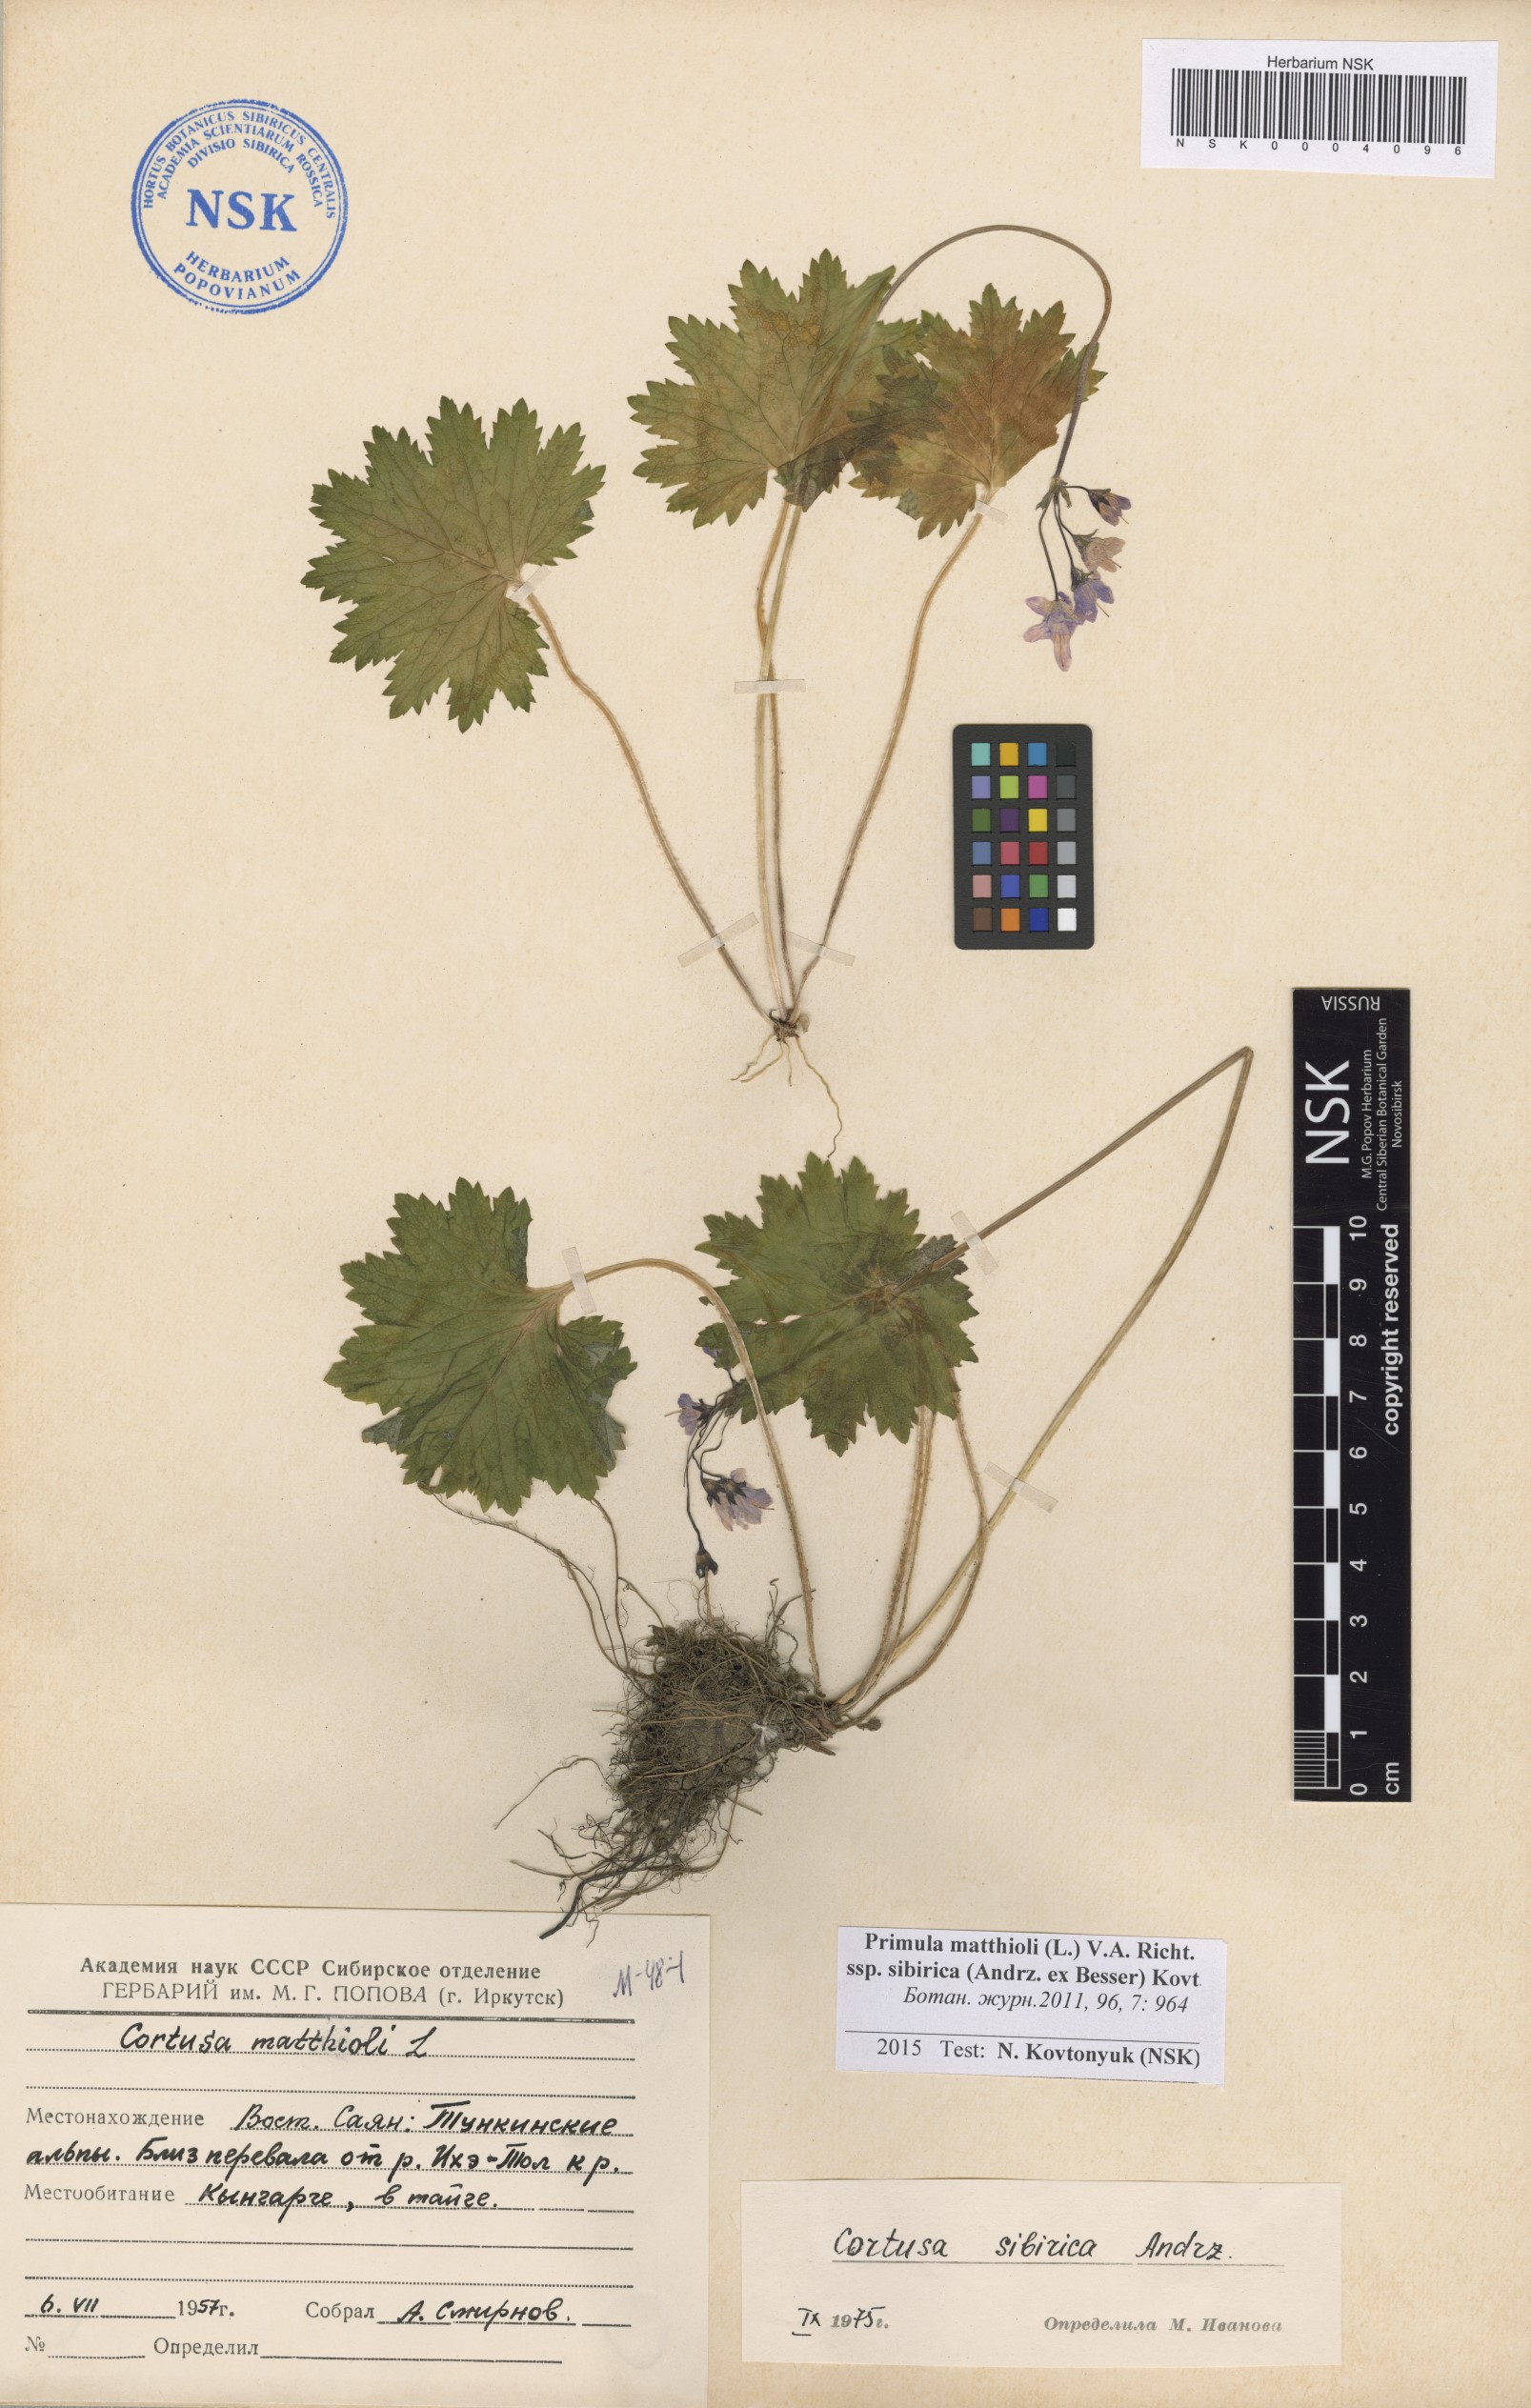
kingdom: Plantae
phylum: Tracheophyta
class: Magnoliopsida
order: Ericales
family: Primulaceae
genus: Primula
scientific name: Primula matthioli
